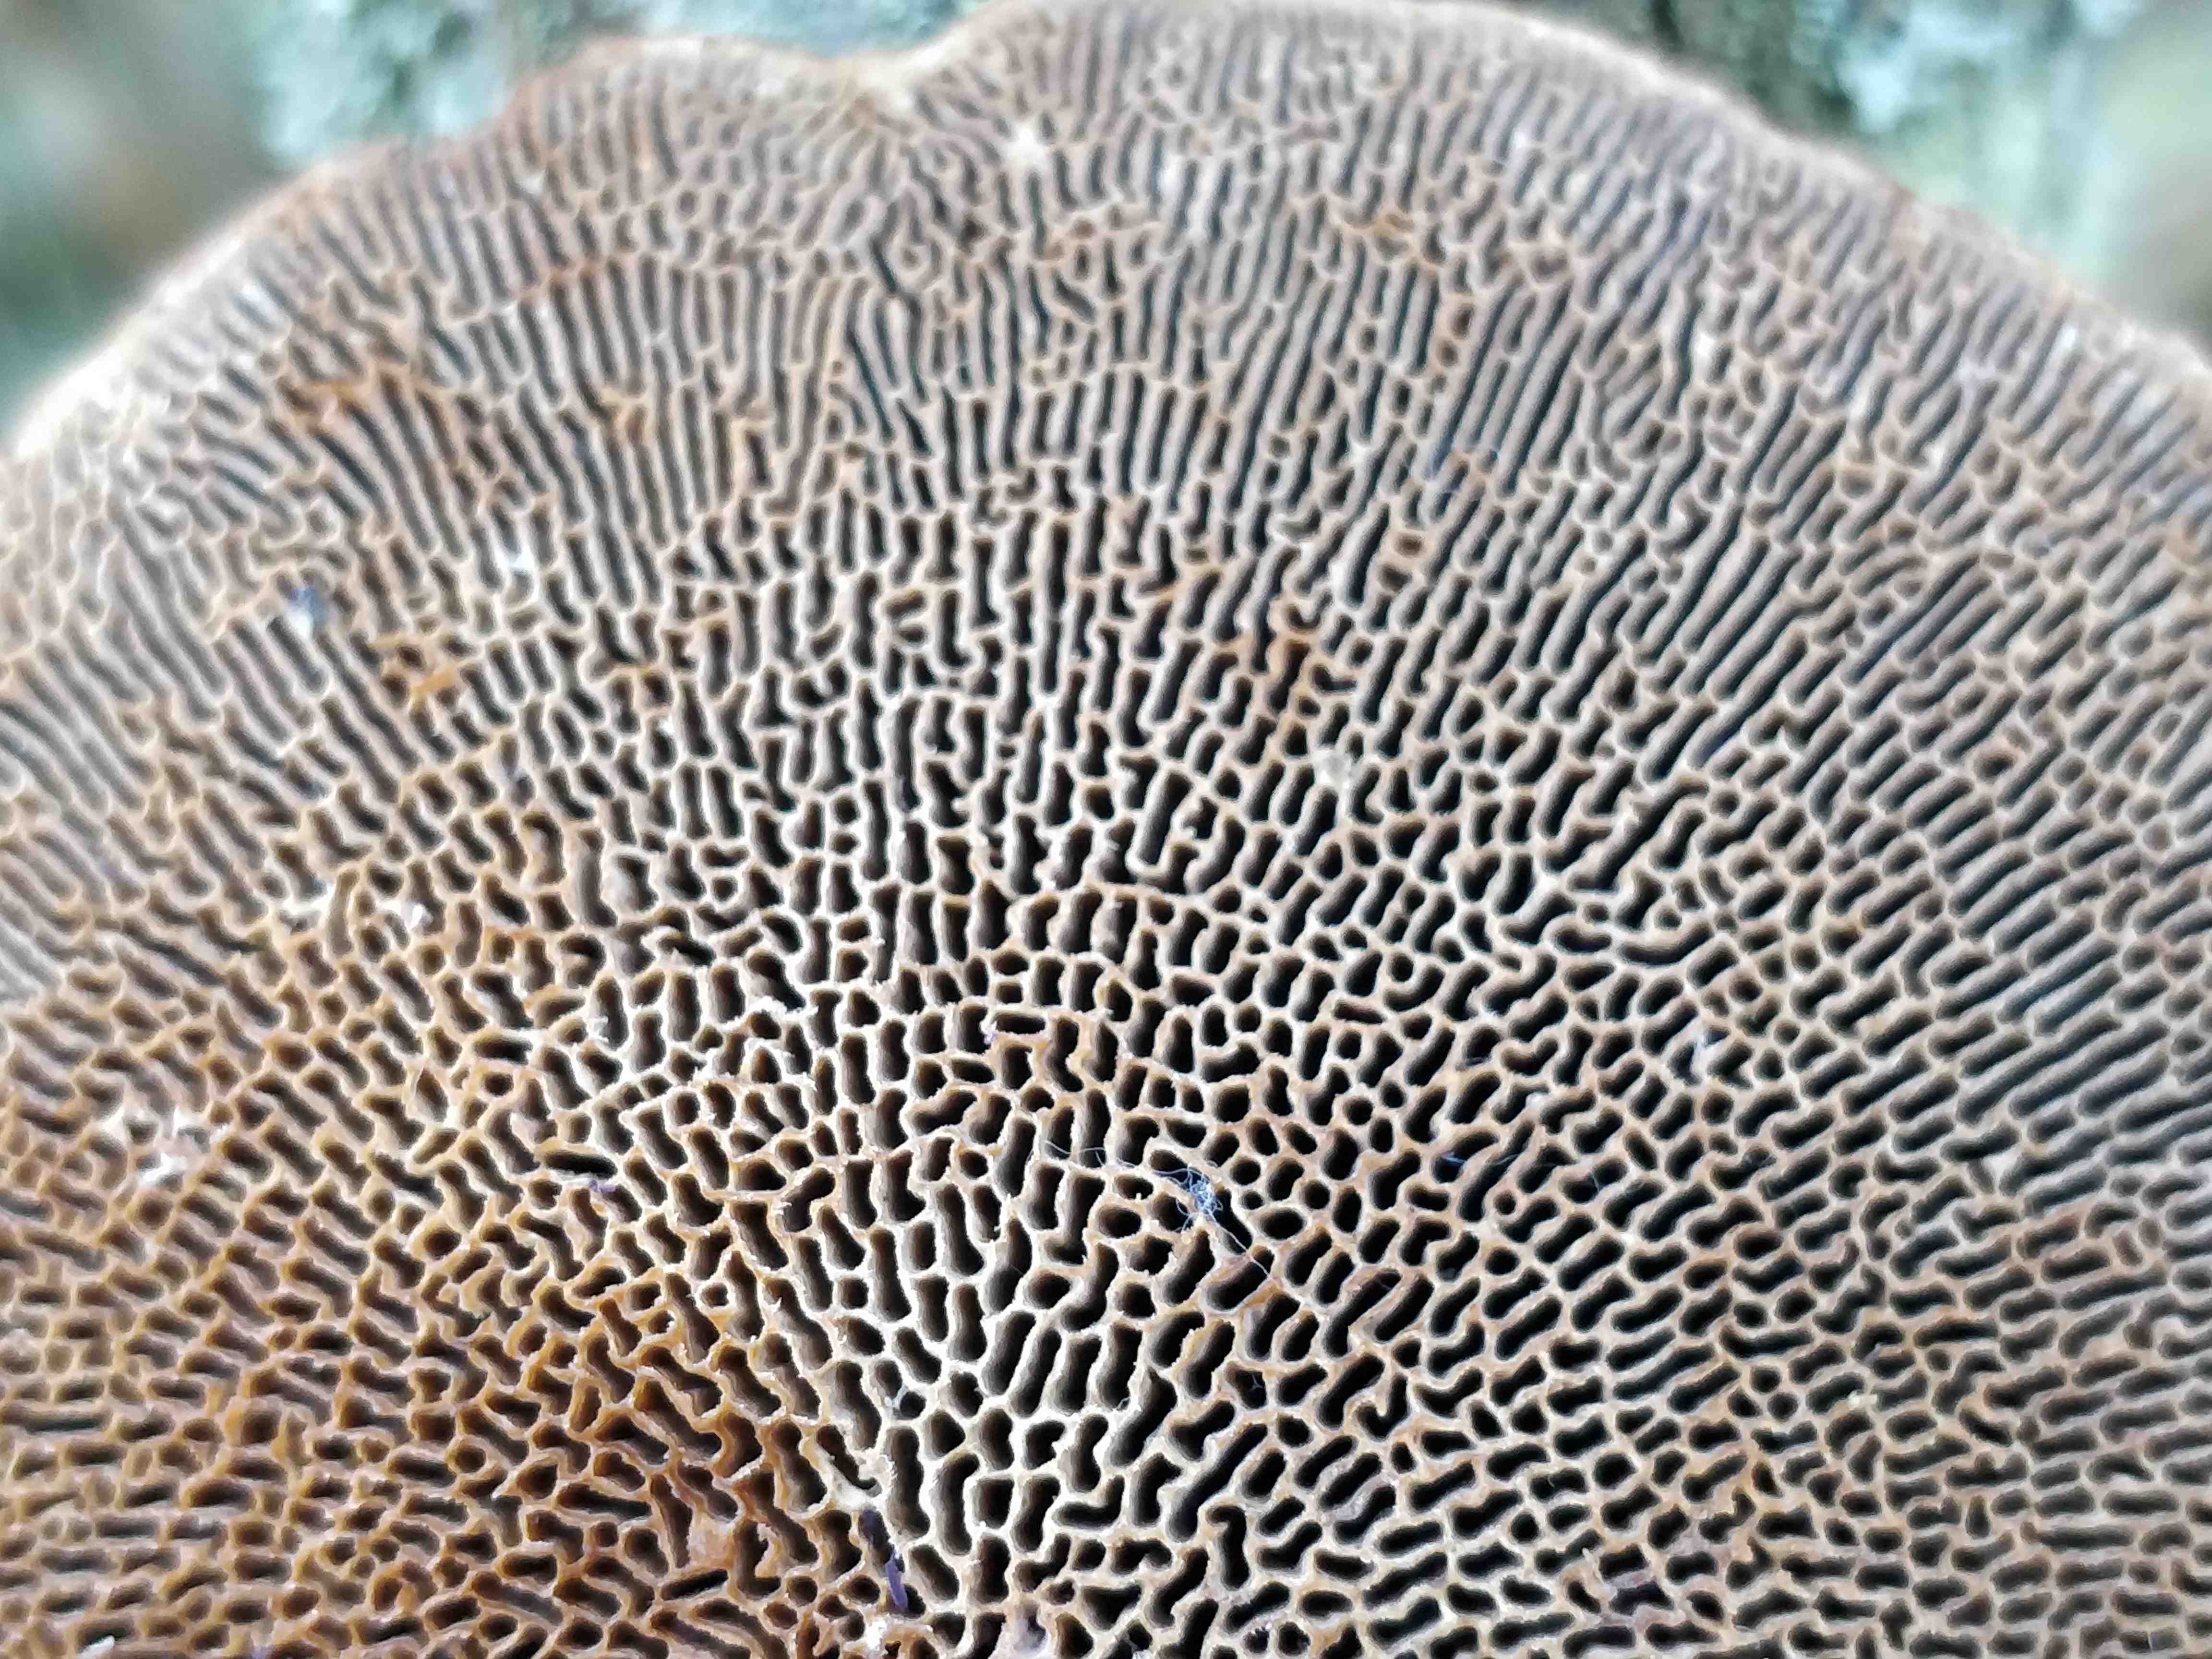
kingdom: Fungi
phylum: Basidiomycota
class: Agaricomycetes
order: Polyporales
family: Polyporaceae
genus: Daedaleopsis
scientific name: Daedaleopsis confragosa
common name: rødmende læderporesvamp
